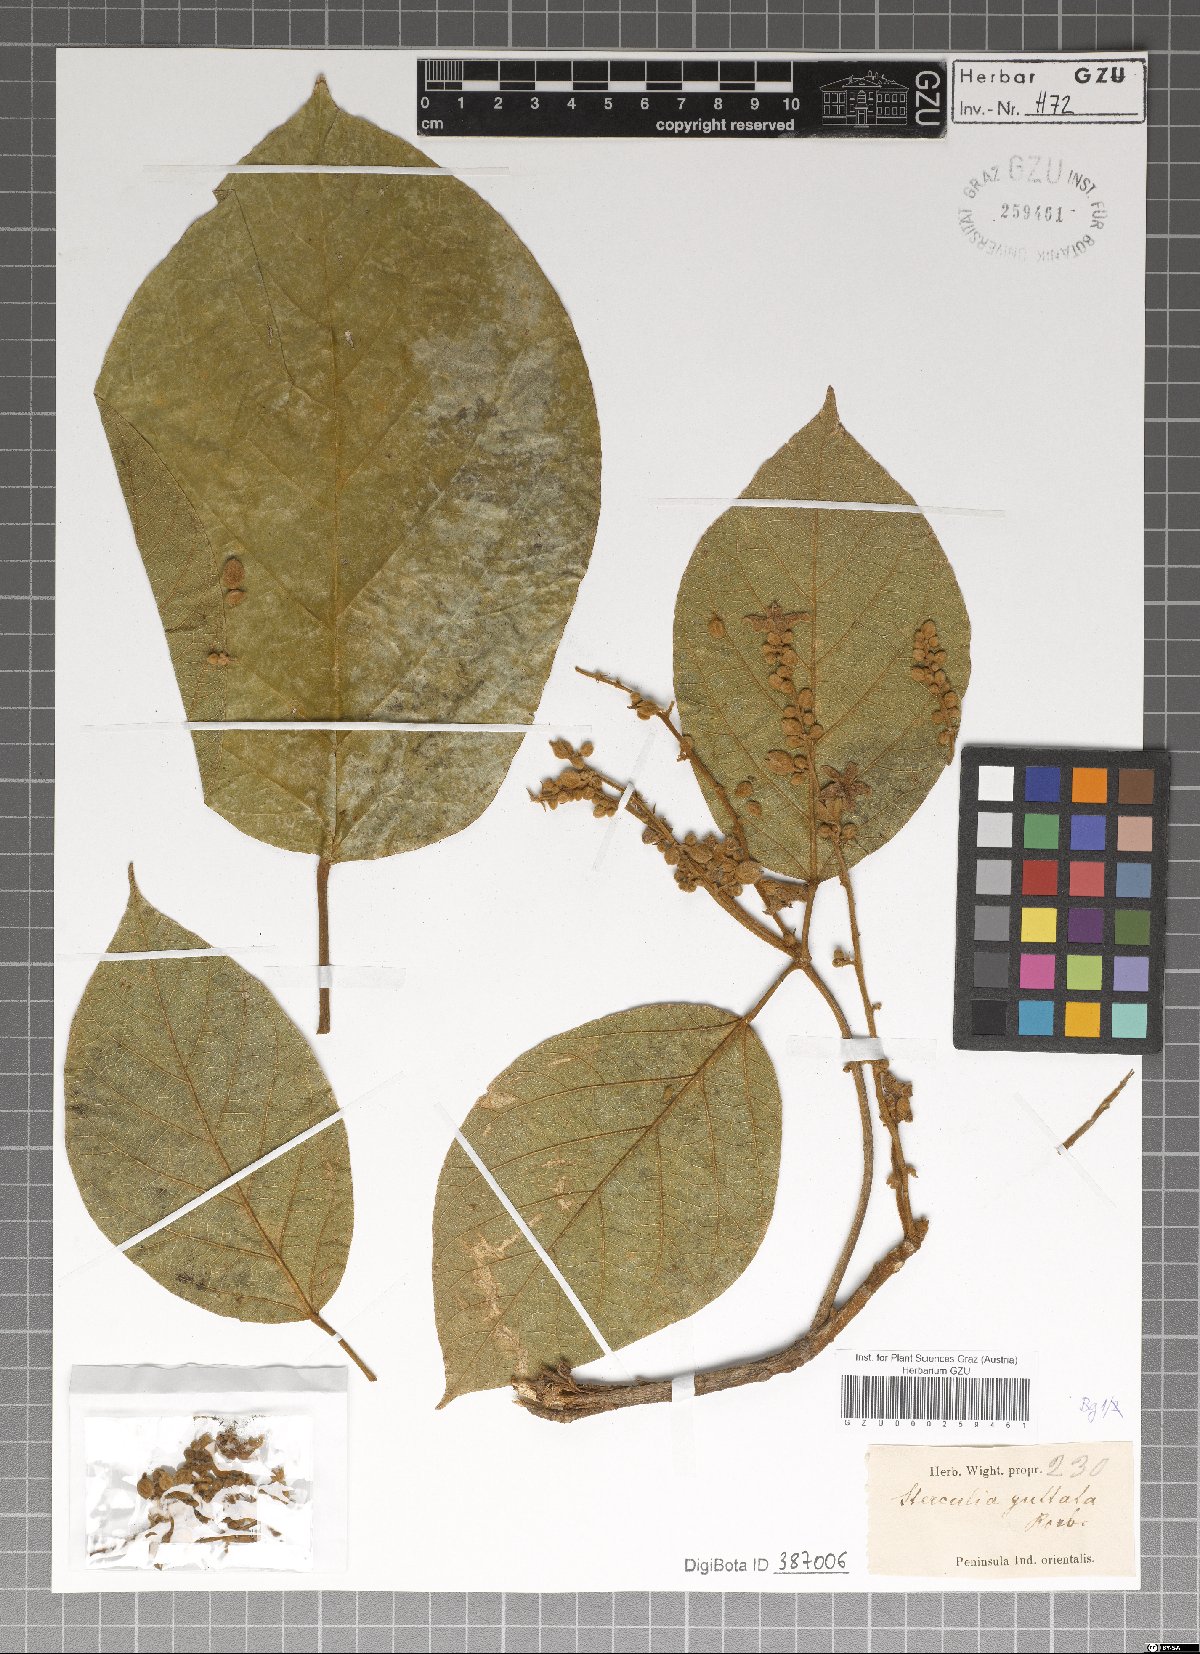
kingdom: Plantae
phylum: Tracheophyta
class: Magnoliopsida
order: Malvales
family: Malvaceae
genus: Sterculia
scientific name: Sterculia guttata
